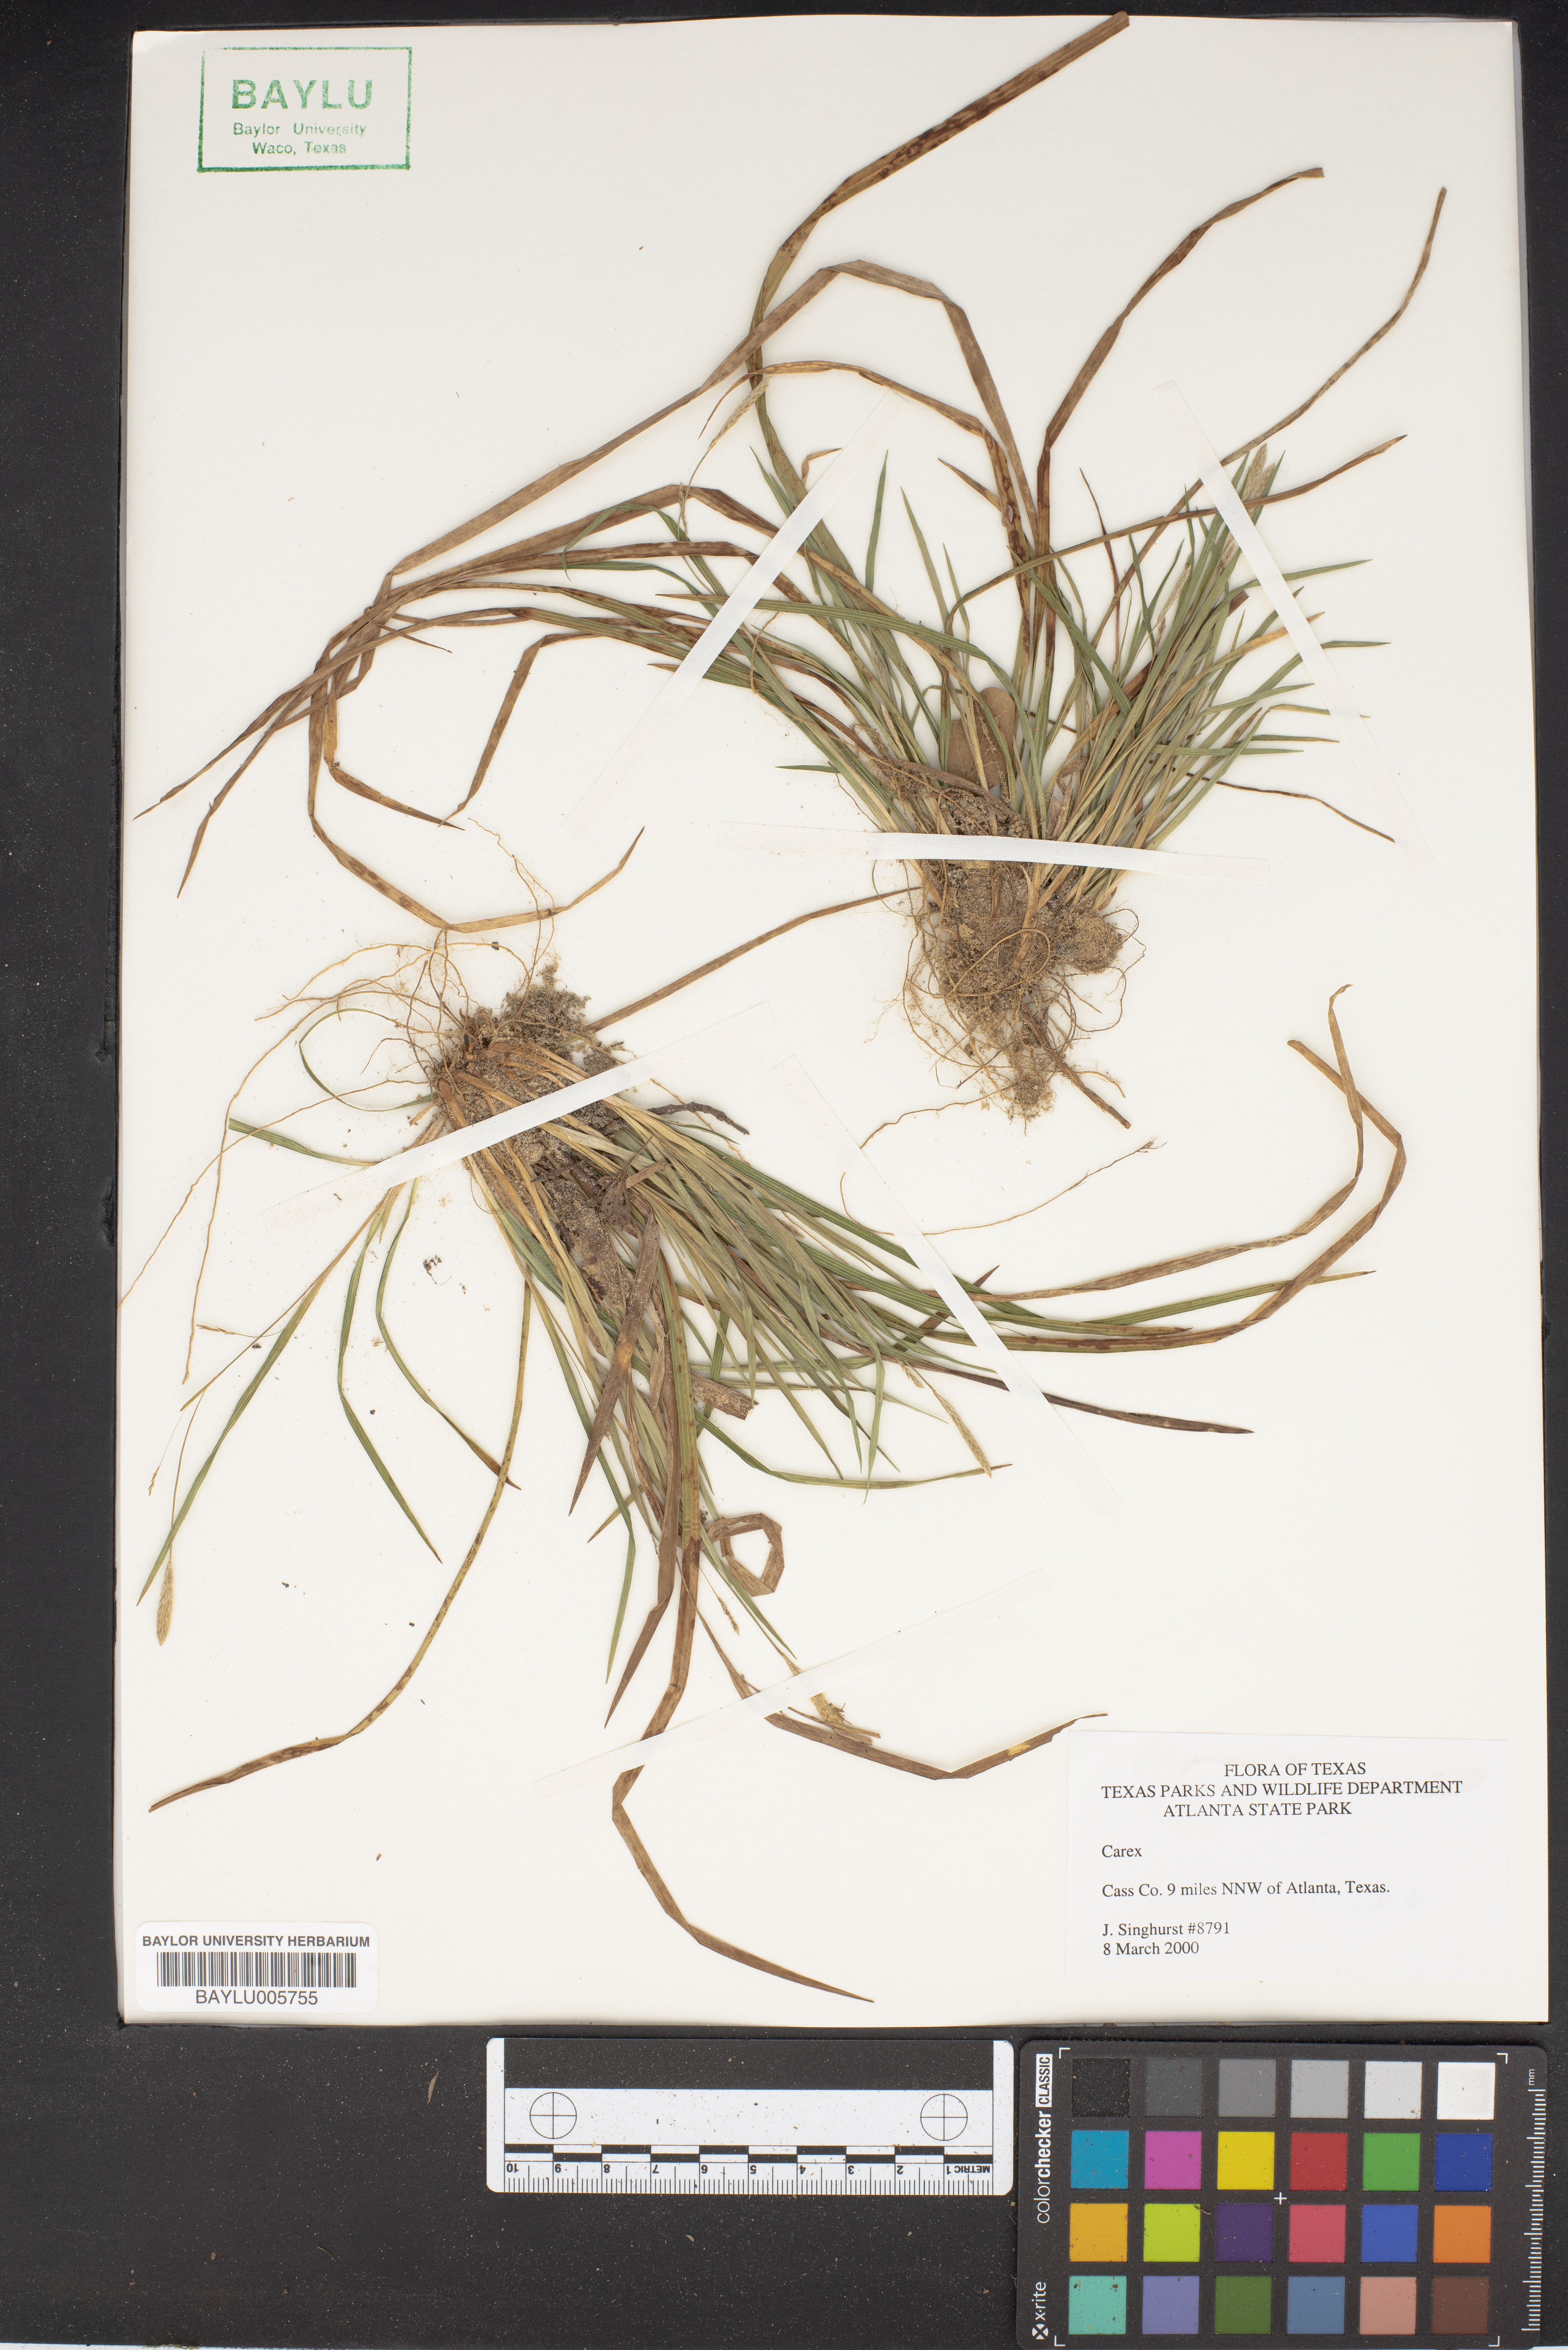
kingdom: Plantae
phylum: Tracheophyta
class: Liliopsida
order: Poales
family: Cyperaceae
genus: Carex
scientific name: Carex
